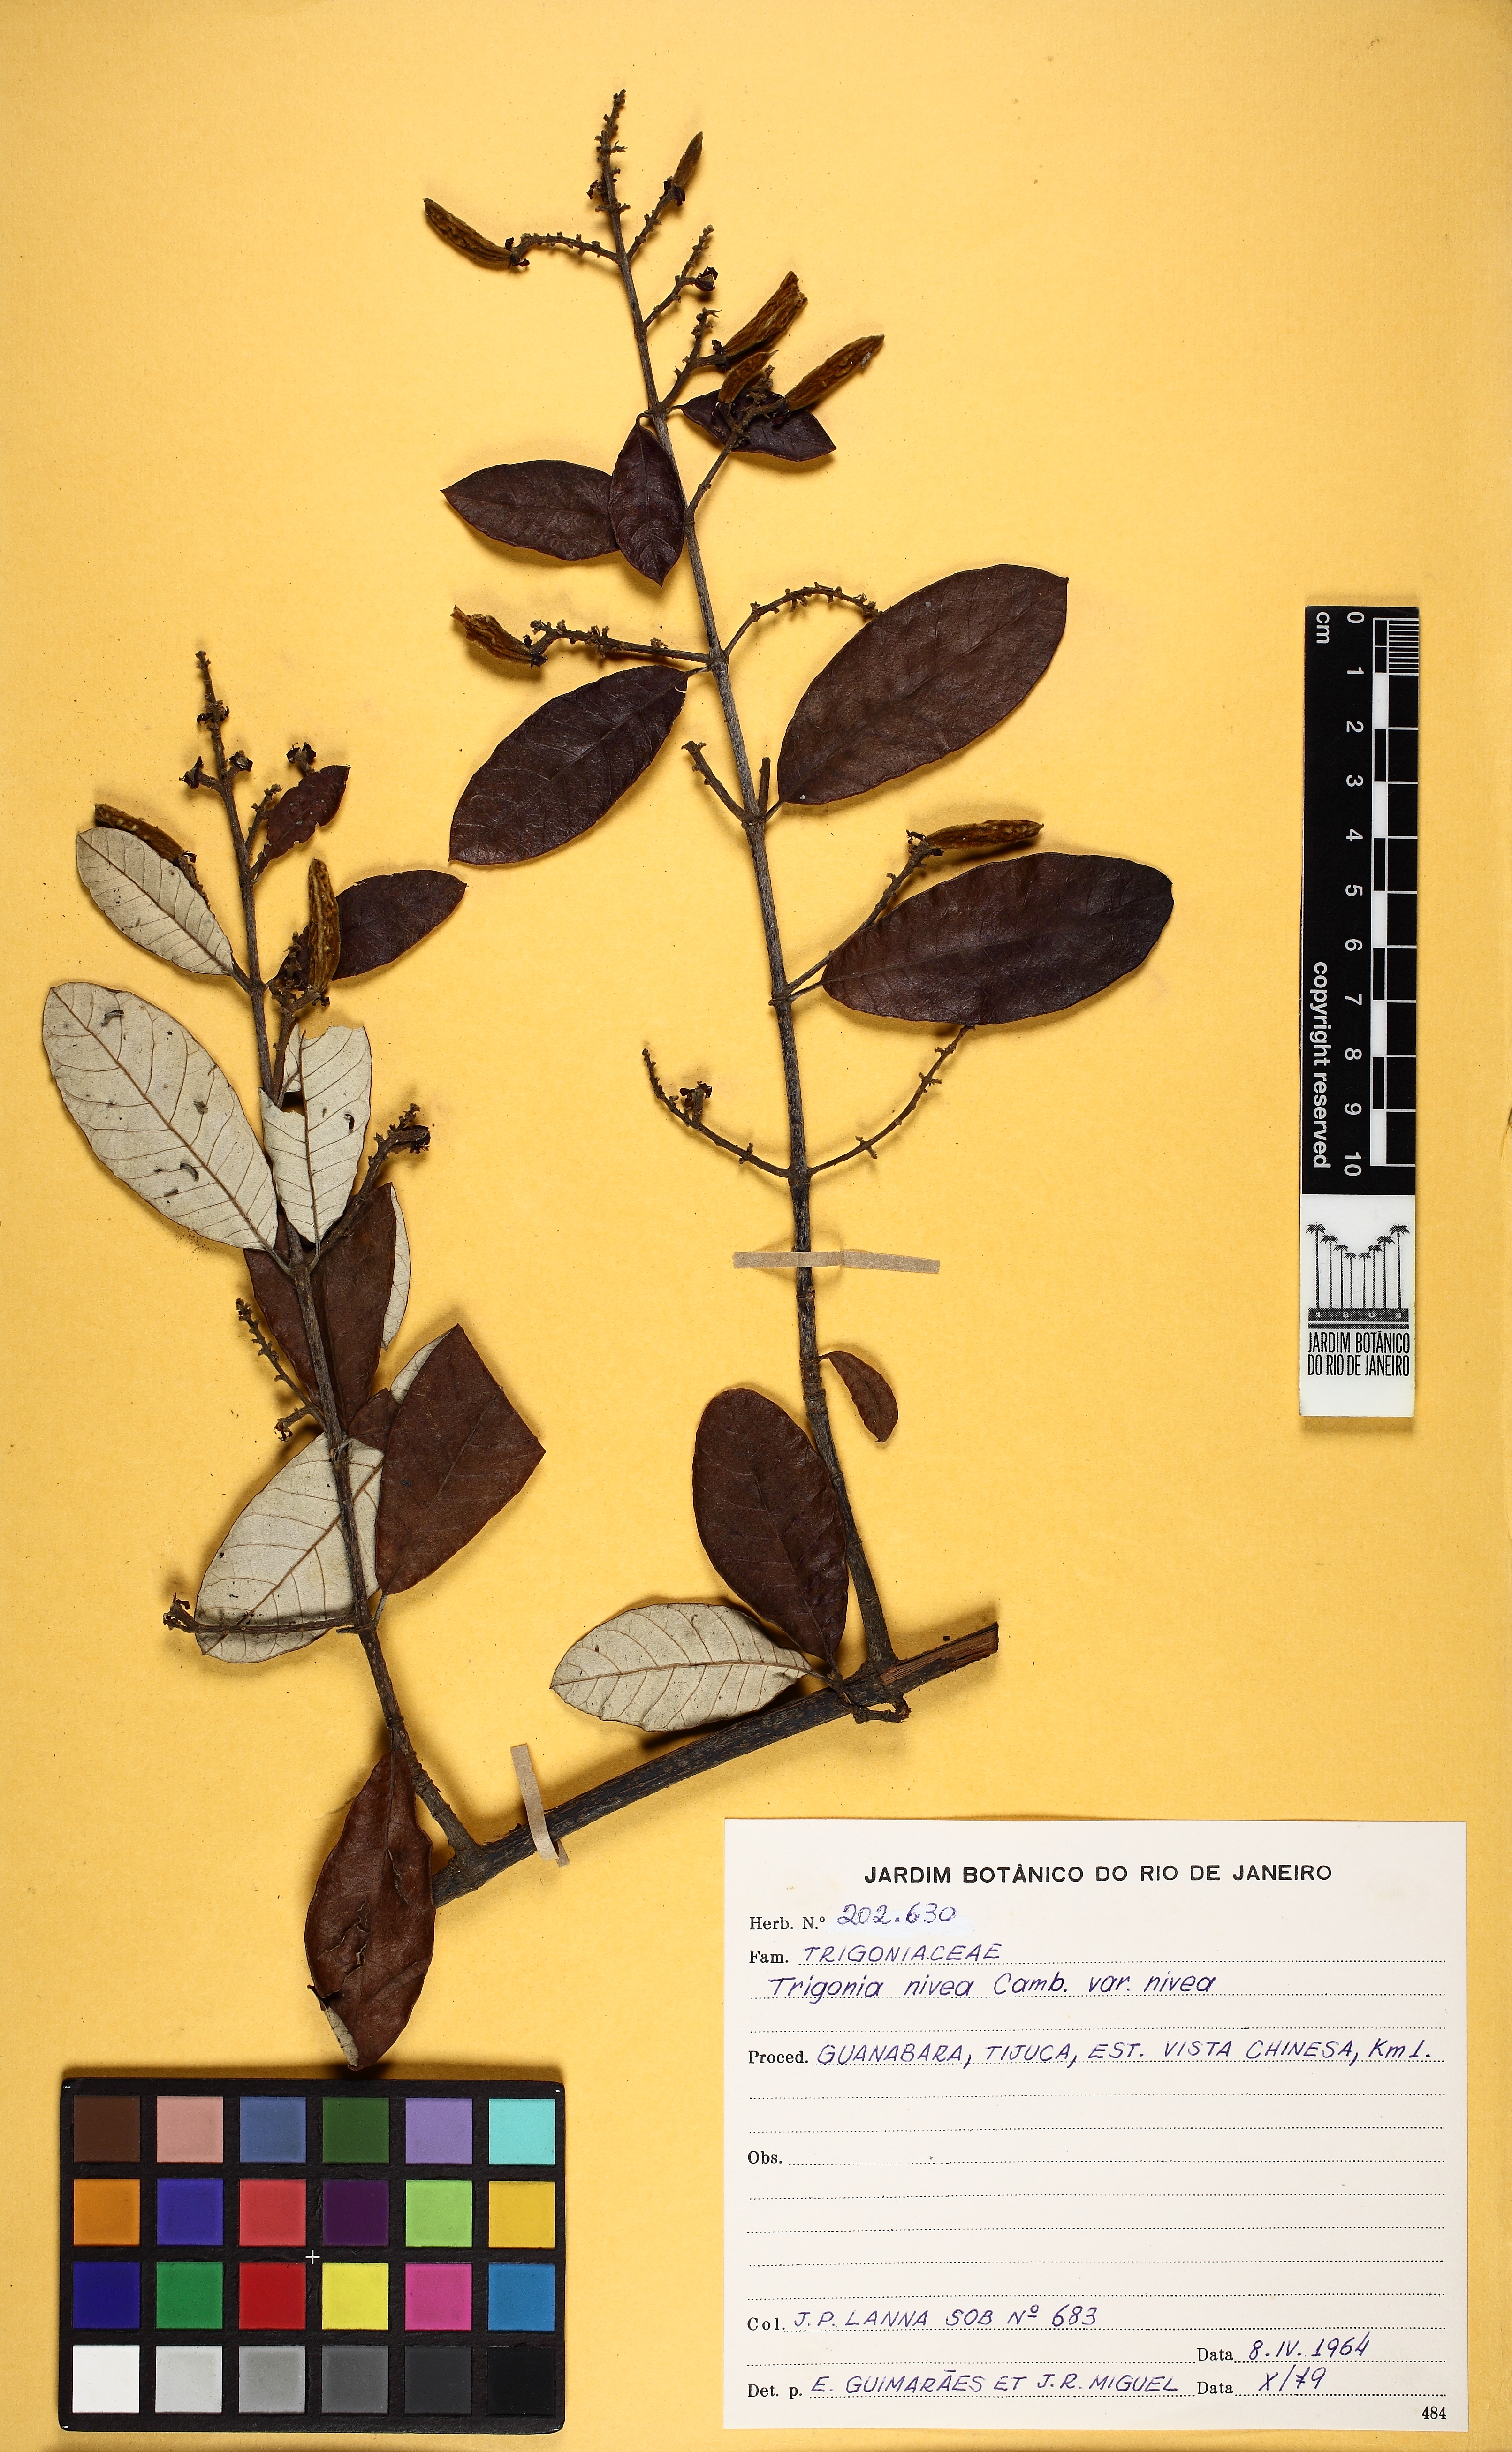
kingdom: Plantae
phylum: Tracheophyta
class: Magnoliopsida
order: Malpighiales
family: Trigoniaceae
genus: Trigonia
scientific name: Trigonia nivea
